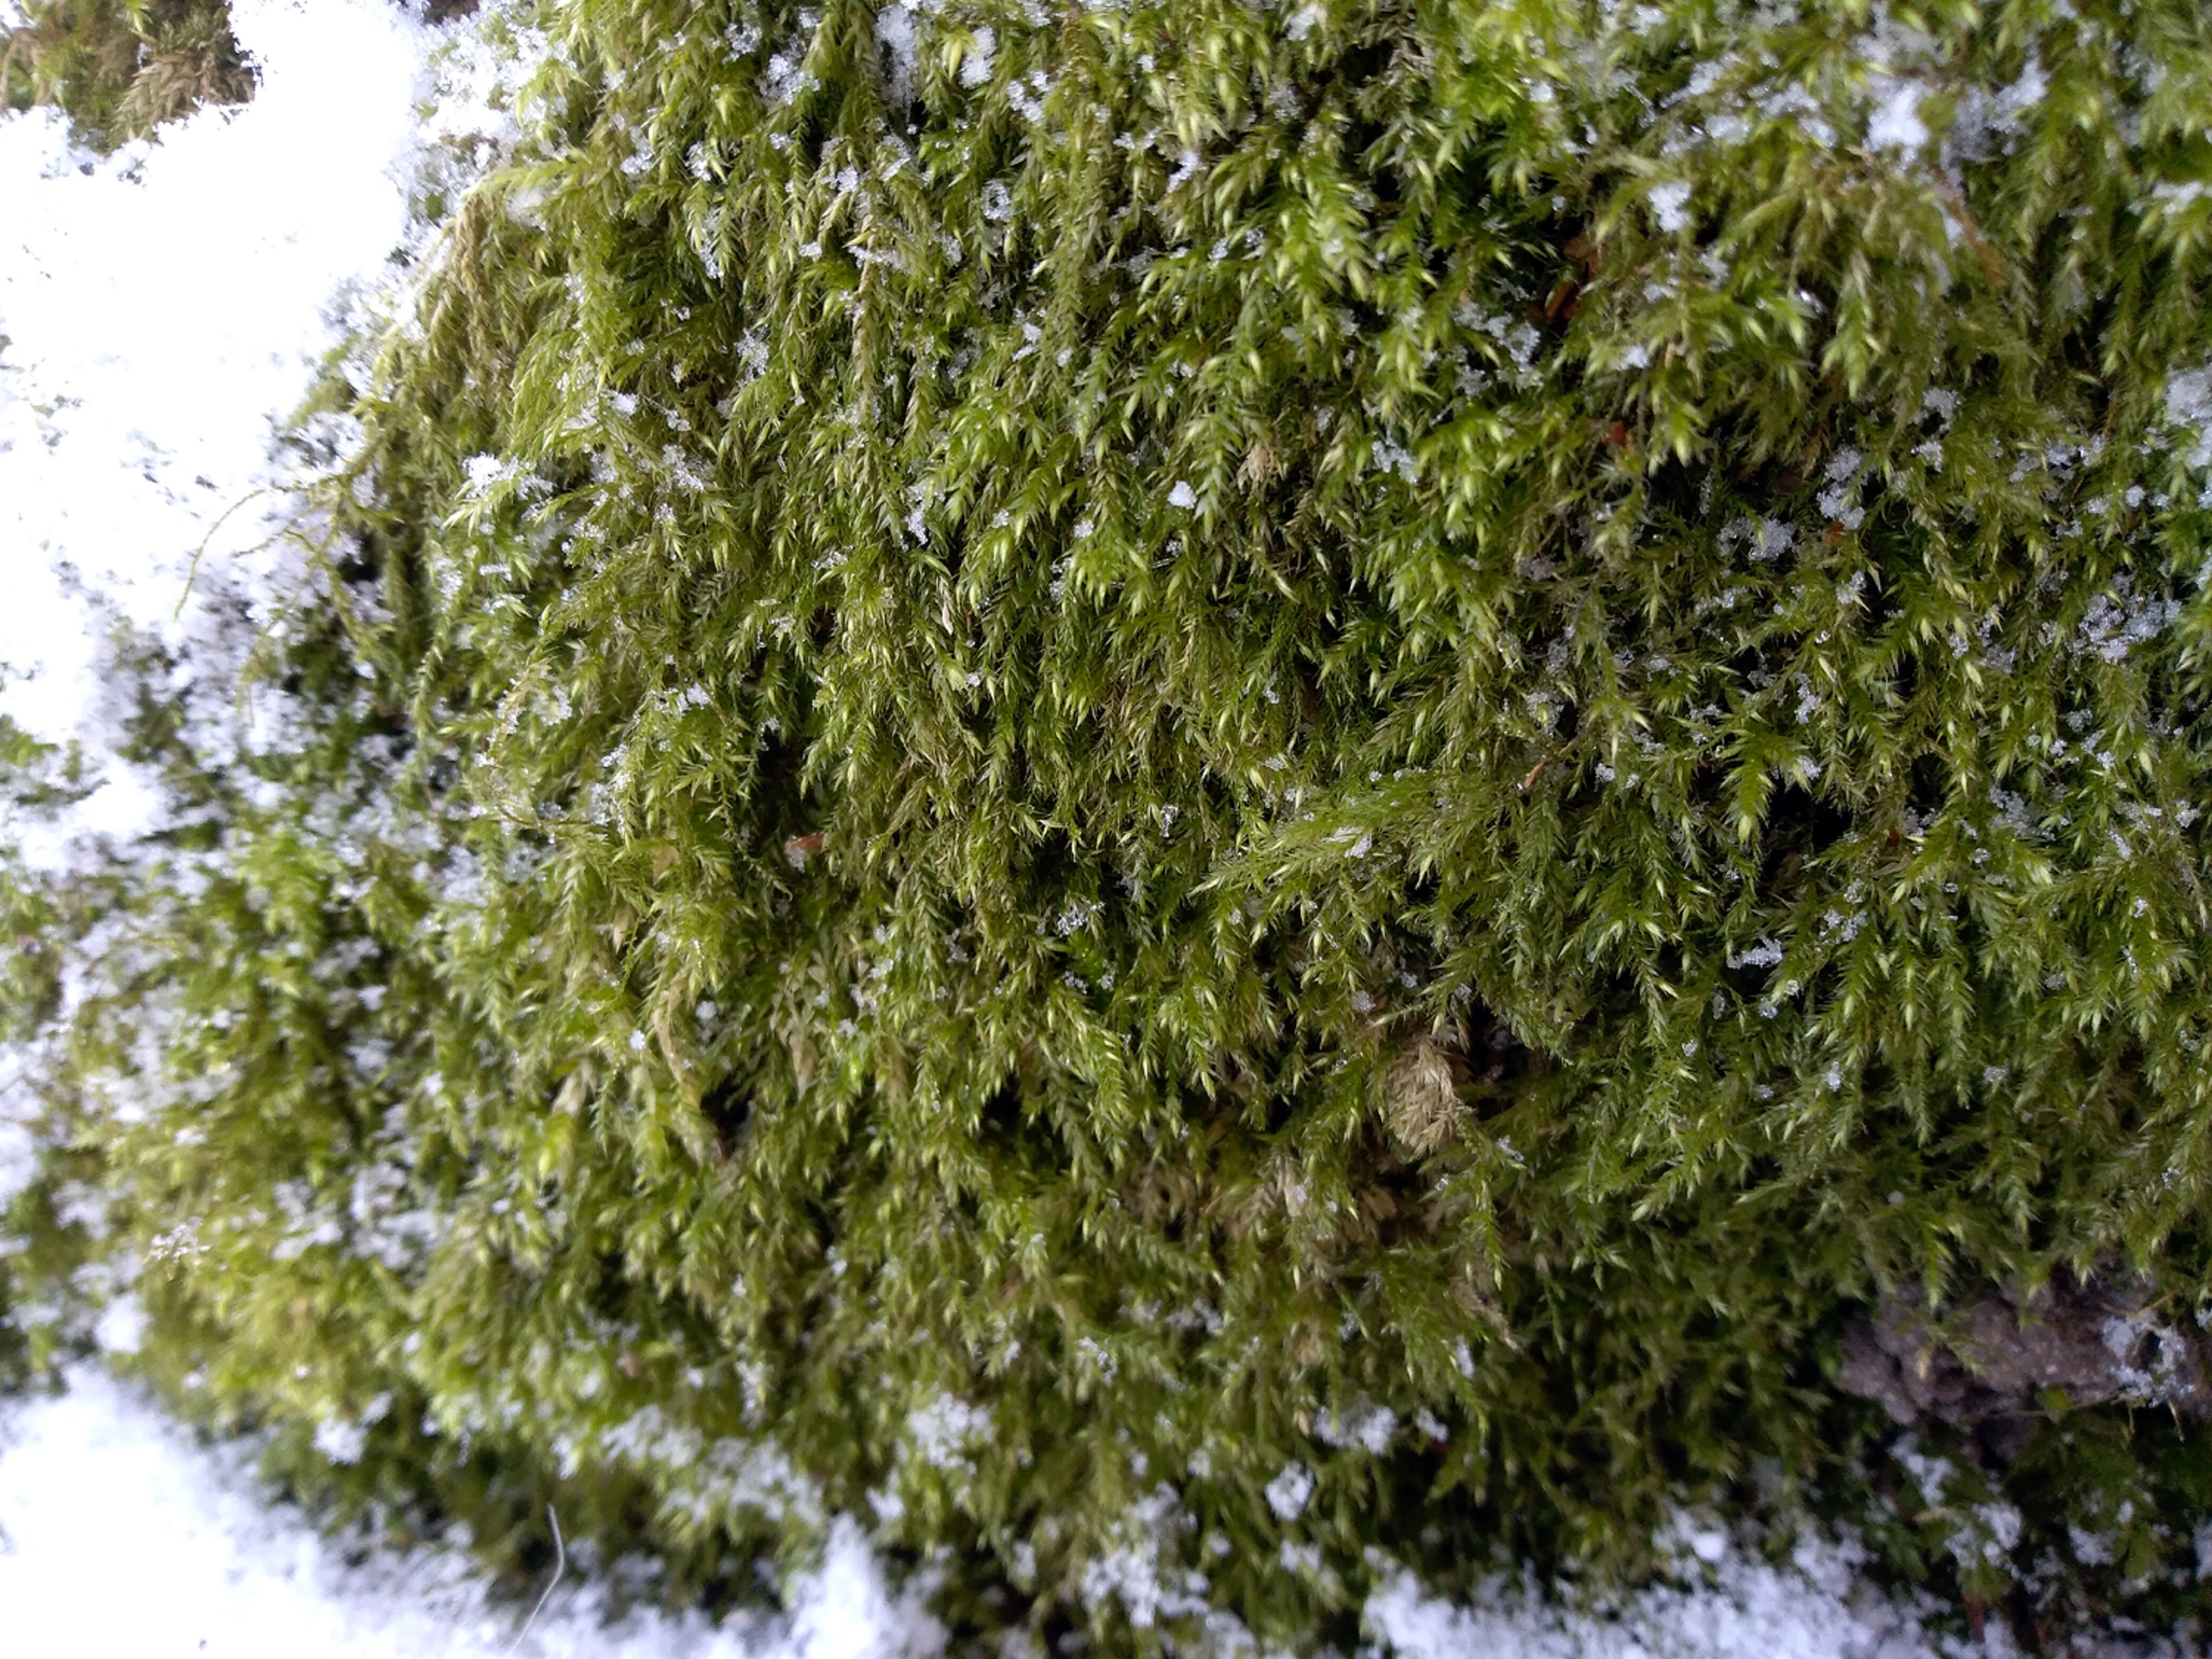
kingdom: Plantae
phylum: Bryophyta
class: Bryopsida
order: Hypnales
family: Lembophyllaceae
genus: Pseudisothecium
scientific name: Pseudisothecium myosuroides
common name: Slank stammemos
